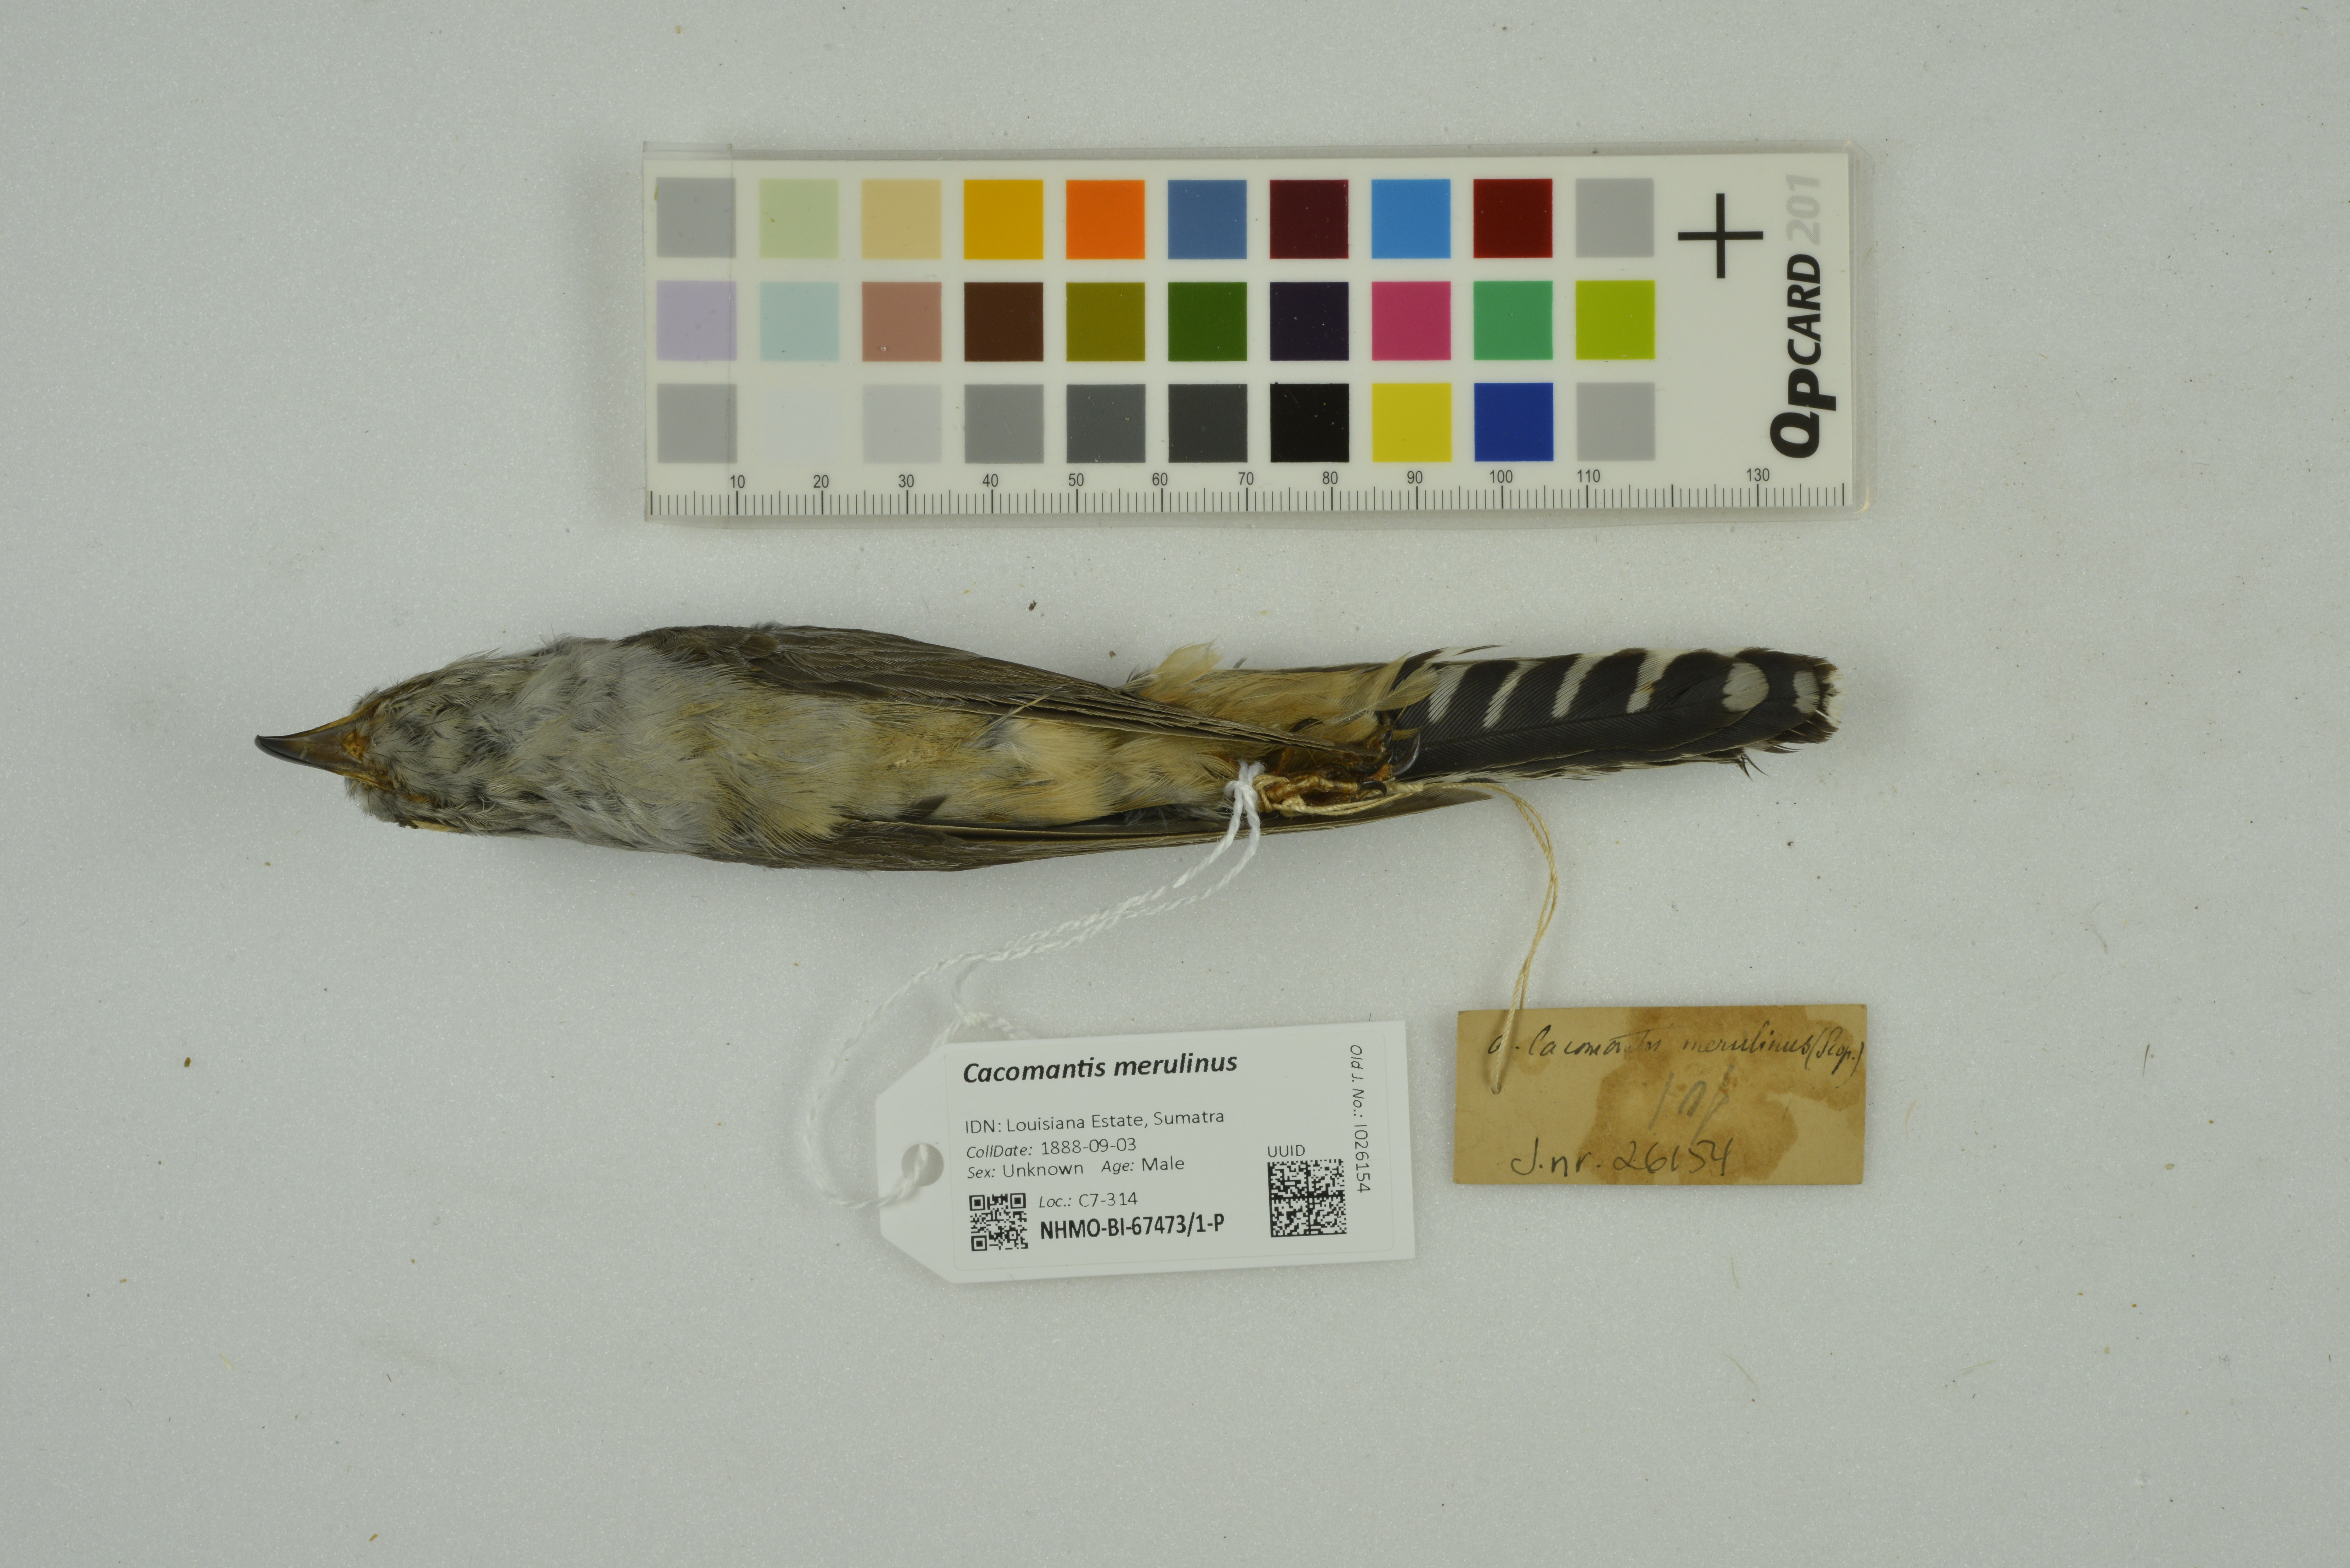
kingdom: Animalia
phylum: Chordata
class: Aves
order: Cuculiformes
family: Cuculidae
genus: Cacomantis
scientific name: Cacomantis merulinus
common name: Plaintive cuckoo
